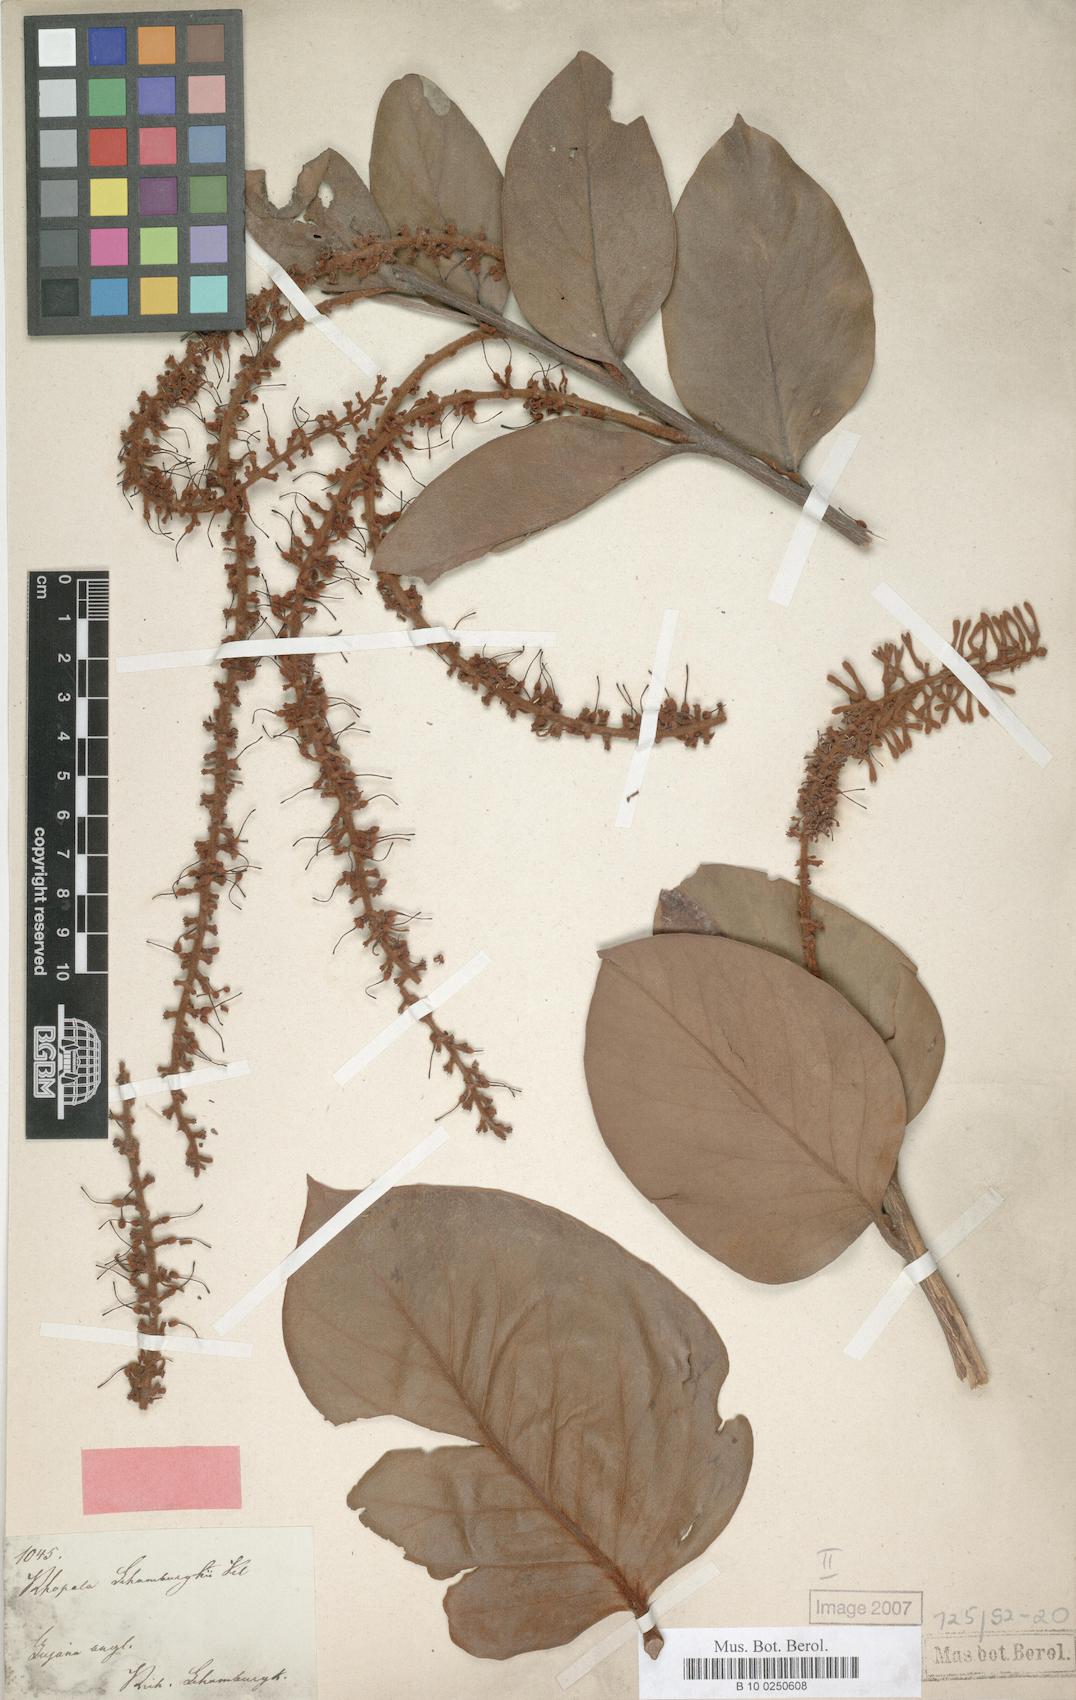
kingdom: Plantae
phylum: Tracheophyta
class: Magnoliopsida
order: Proteales
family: Proteaceae
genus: Roupala
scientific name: Roupala suaveolens
